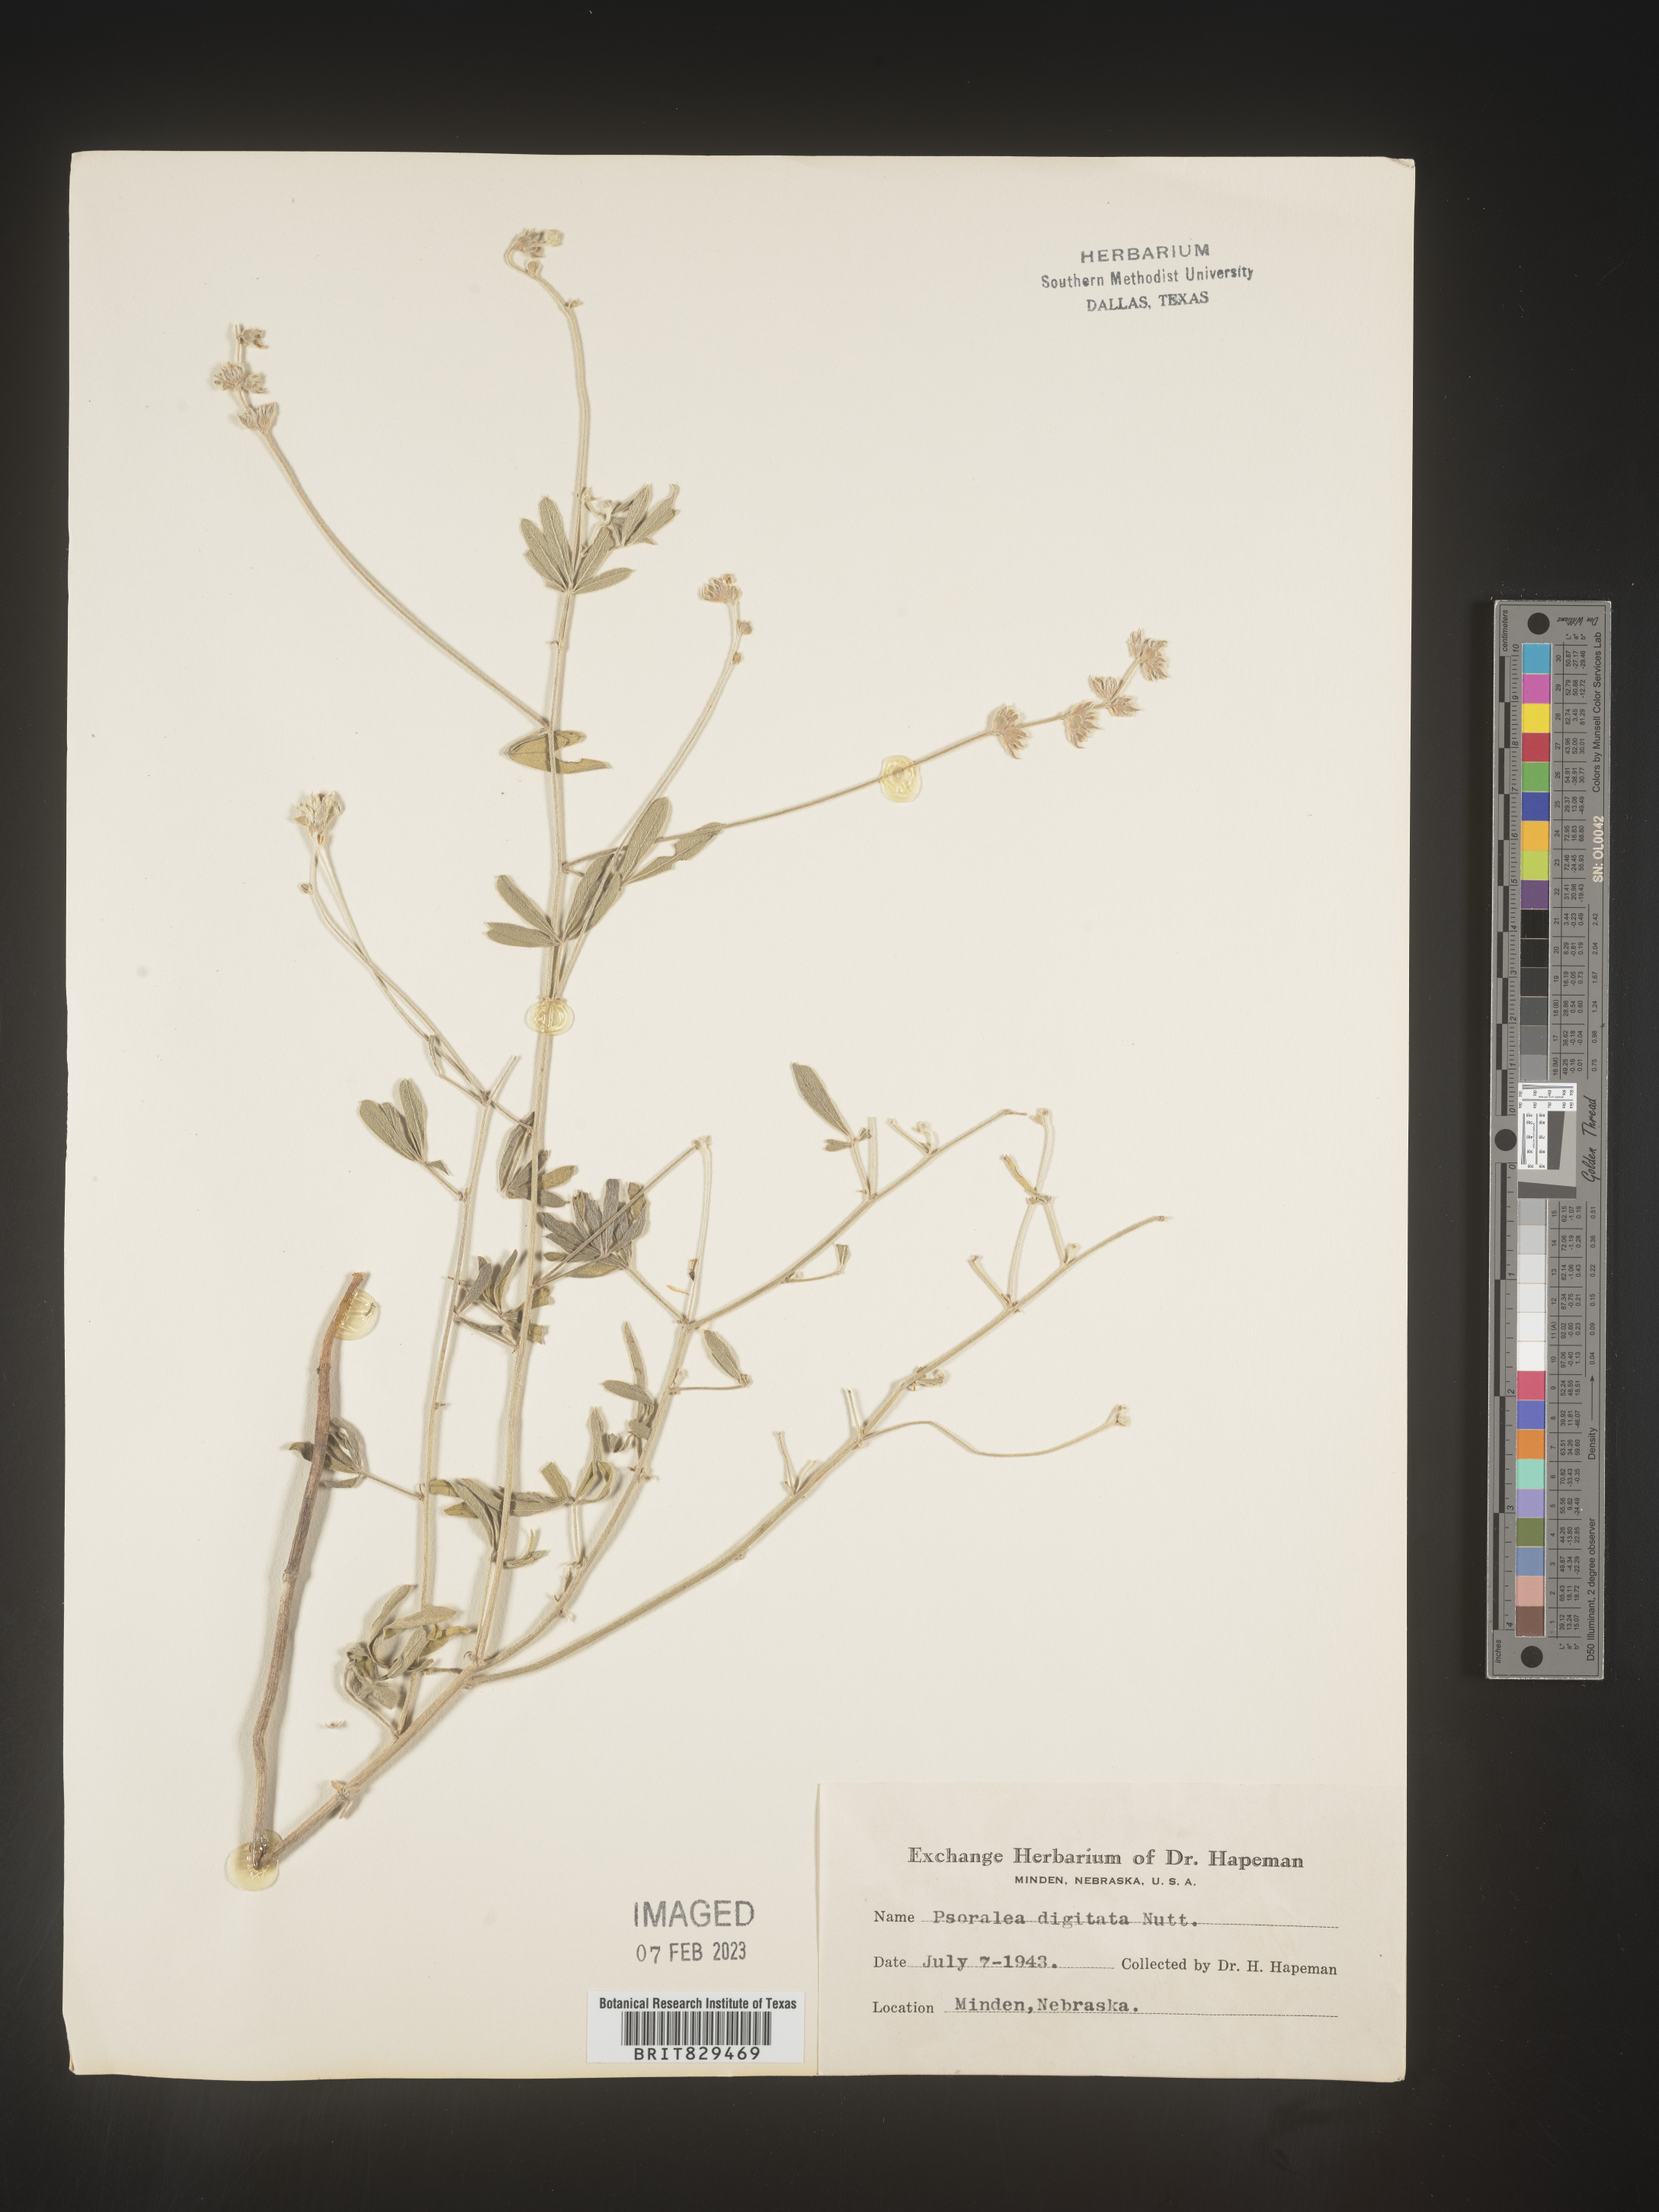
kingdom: Plantae
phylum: Tracheophyta
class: Magnoliopsida
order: Fabales
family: Fabaceae
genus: Pediomelum
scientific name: Pediomelum digitatum
